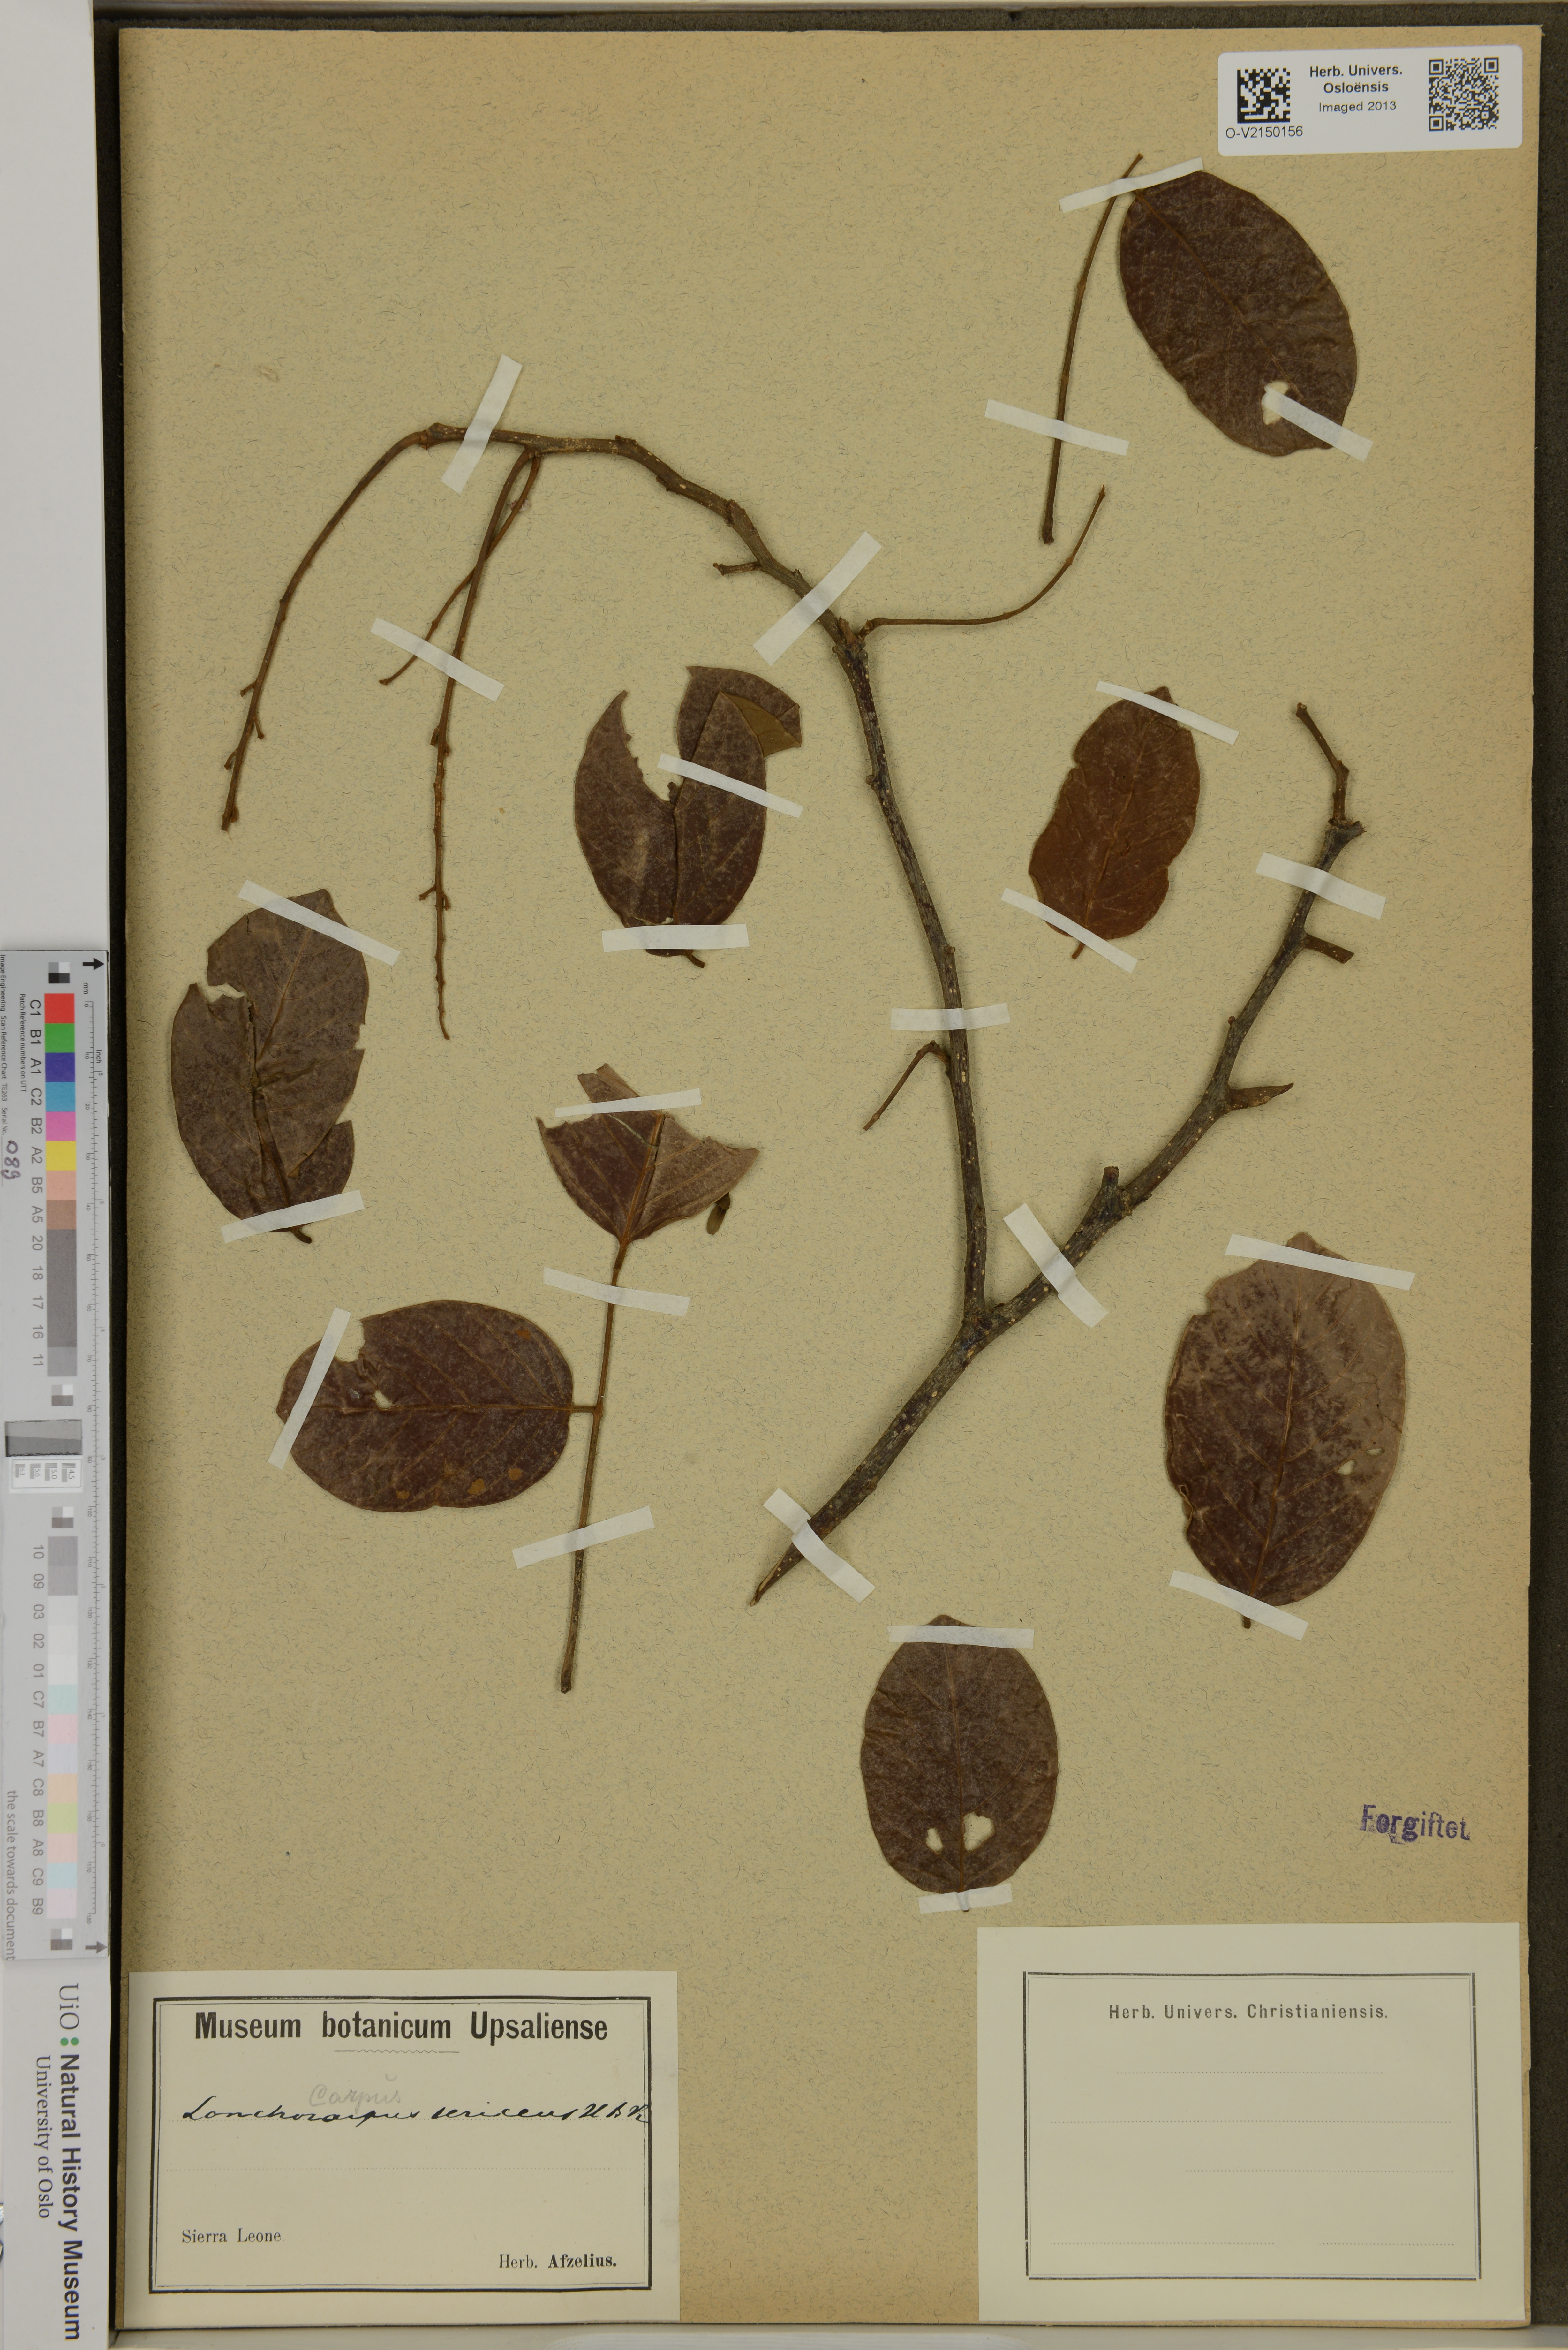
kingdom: Plantae
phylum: Tracheophyta
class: Magnoliopsida
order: Fabales
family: Fabaceae
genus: Lonchocarpus
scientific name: Lonchocarpus sericeus
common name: Savonette
